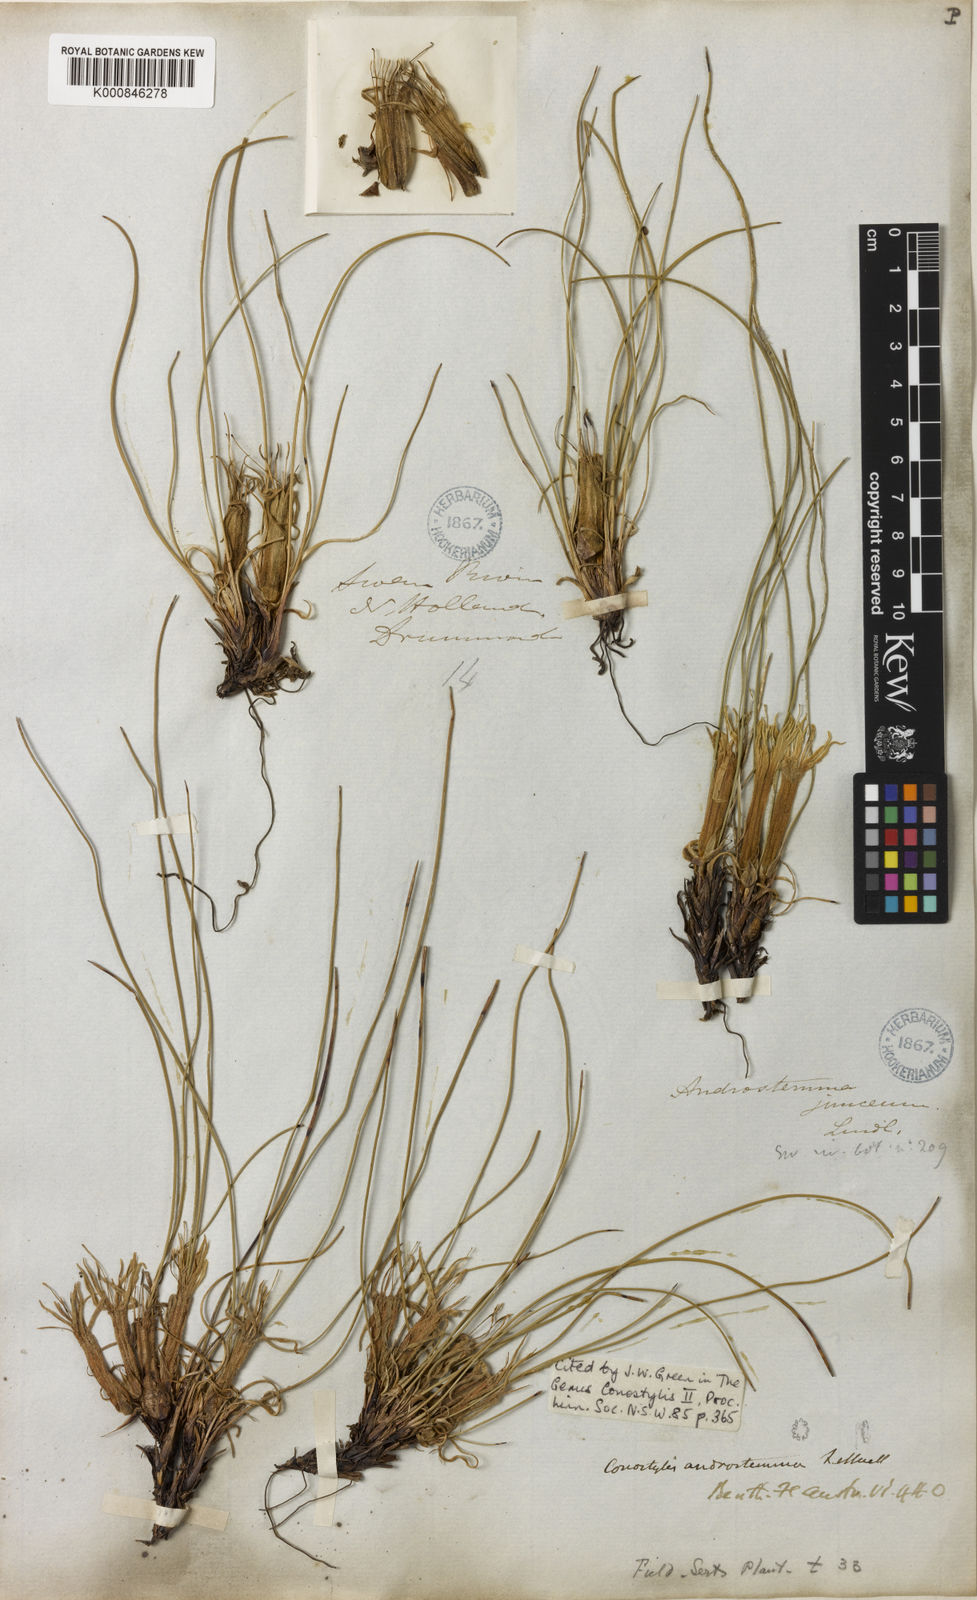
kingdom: Plantae
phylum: Tracheophyta
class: Liliopsida
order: Commelinales
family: Haemodoraceae
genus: Conostylis
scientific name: Conostylis androstemma
